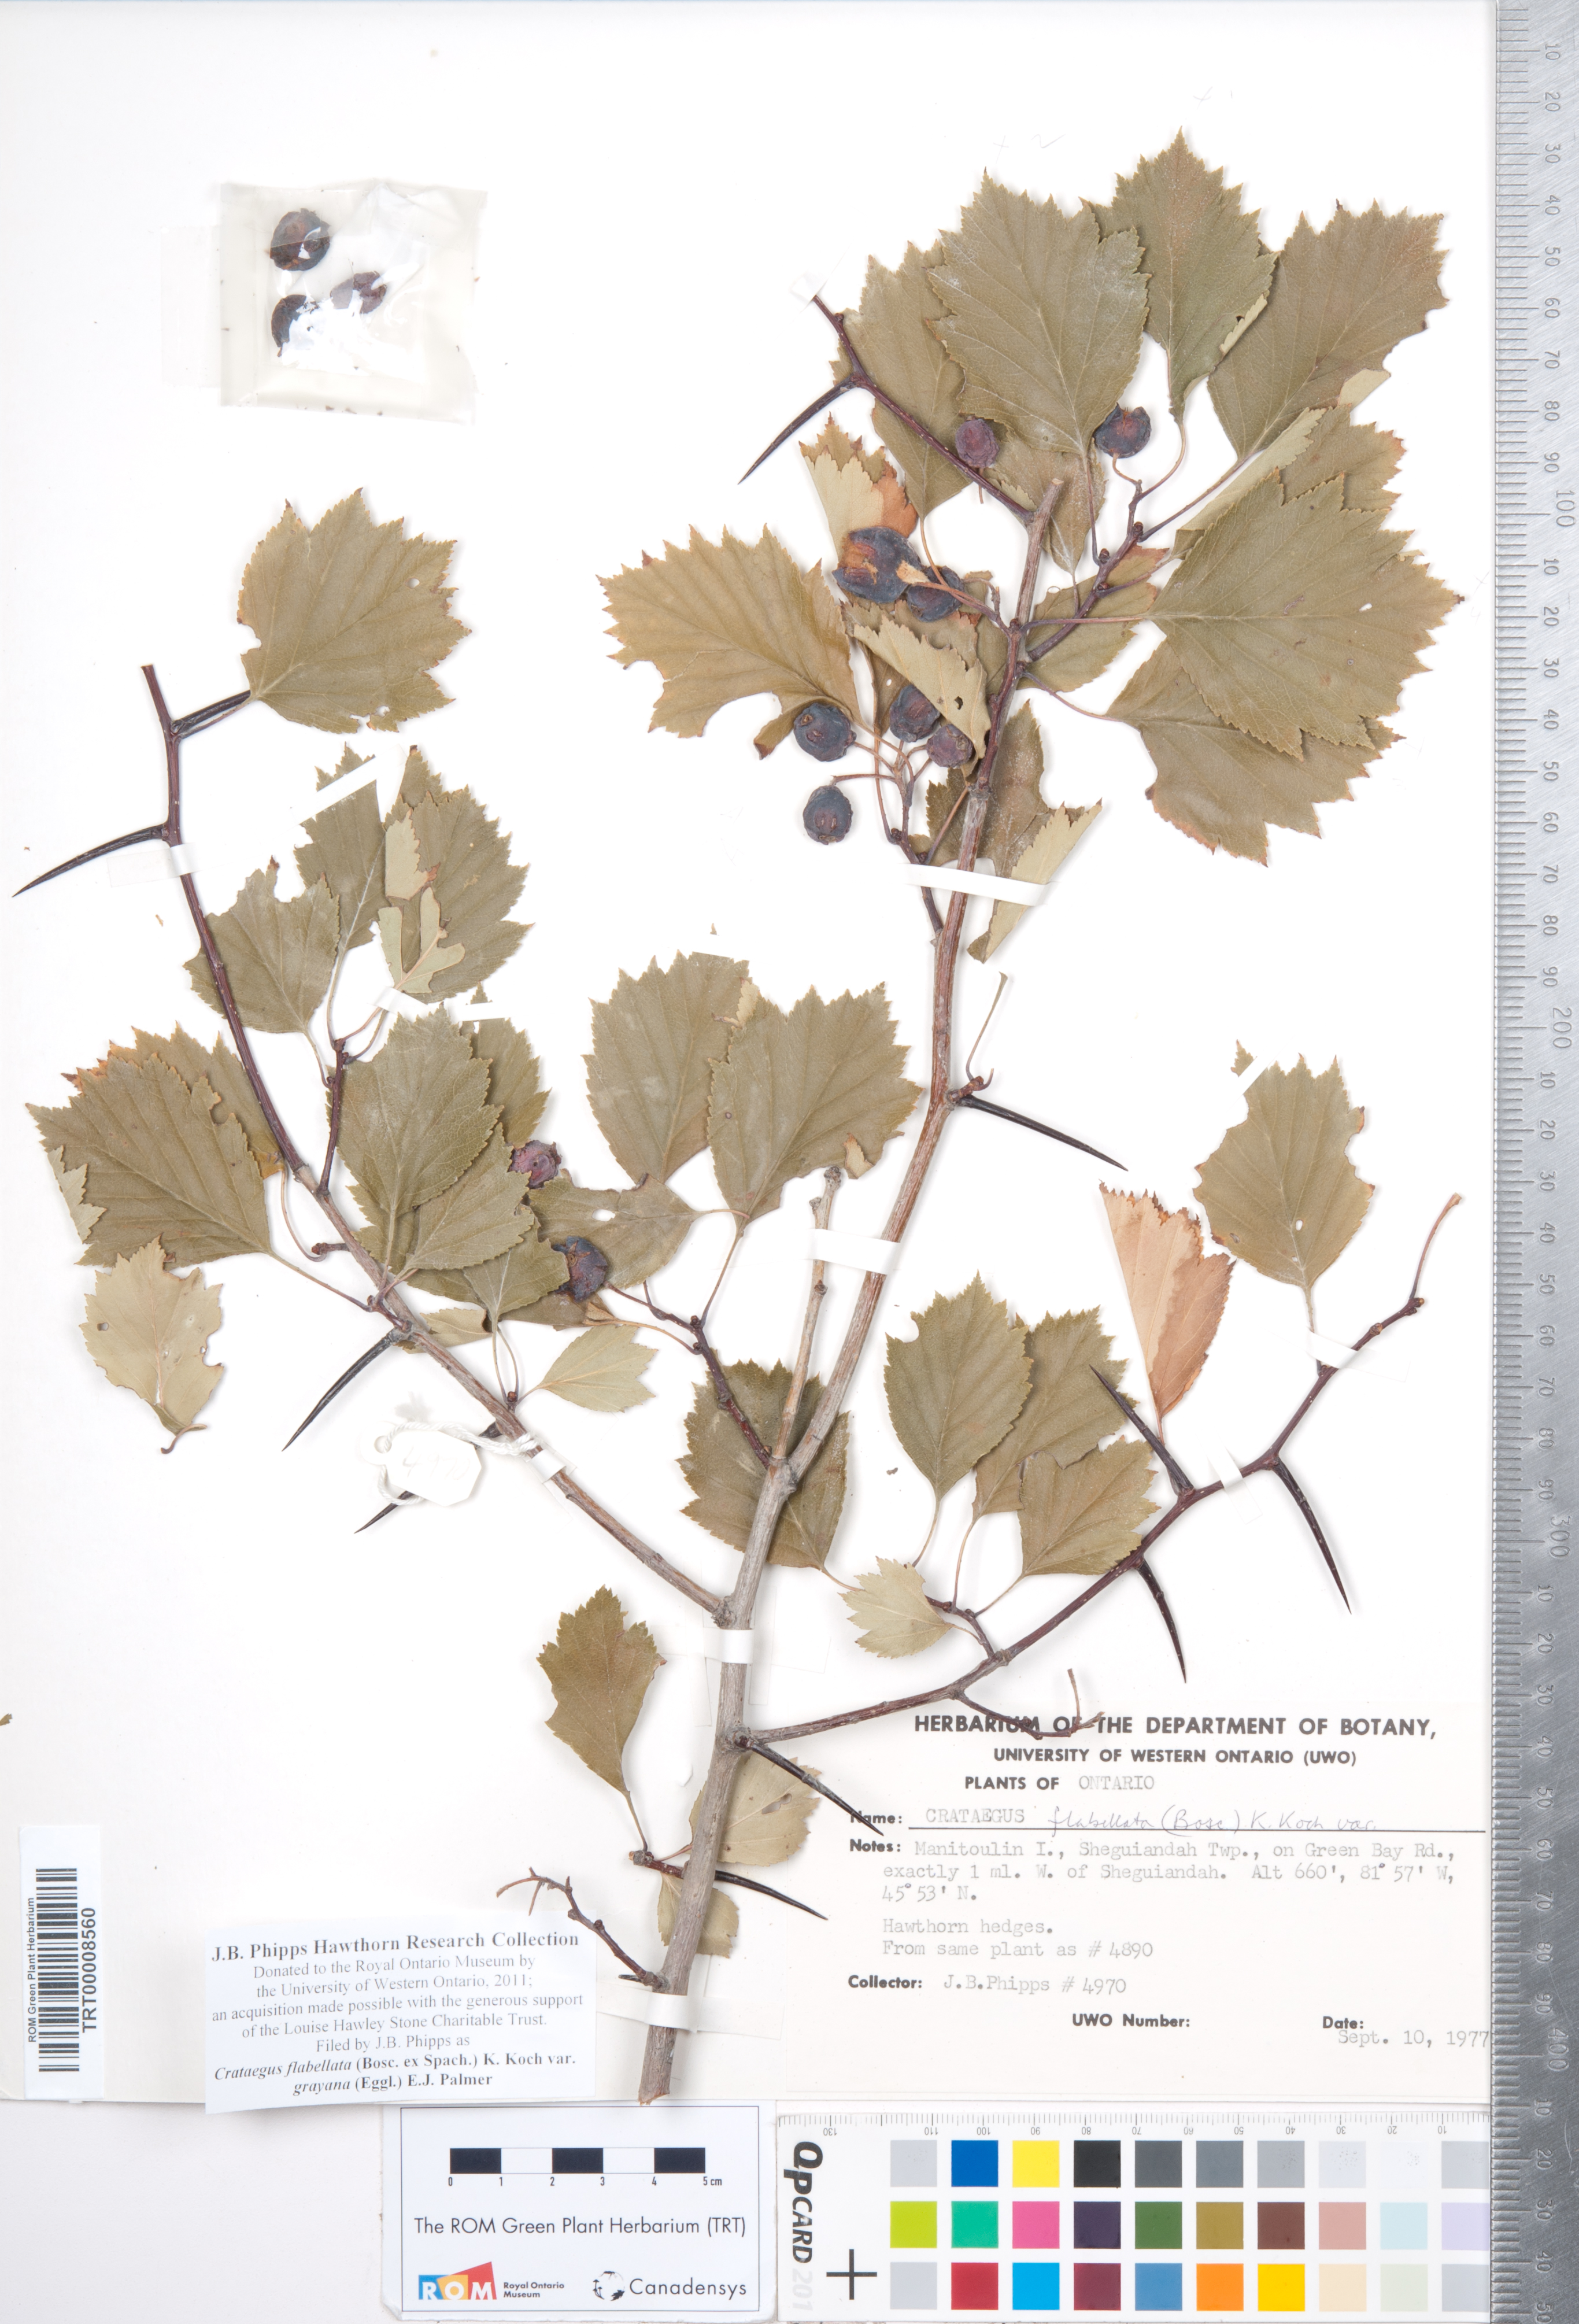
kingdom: Plantae
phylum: Tracheophyta
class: Magnoliopsida
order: Rosales
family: Rosaceae
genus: Crataegus
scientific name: Crataegus flabellata
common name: Bosc's hawthorn
